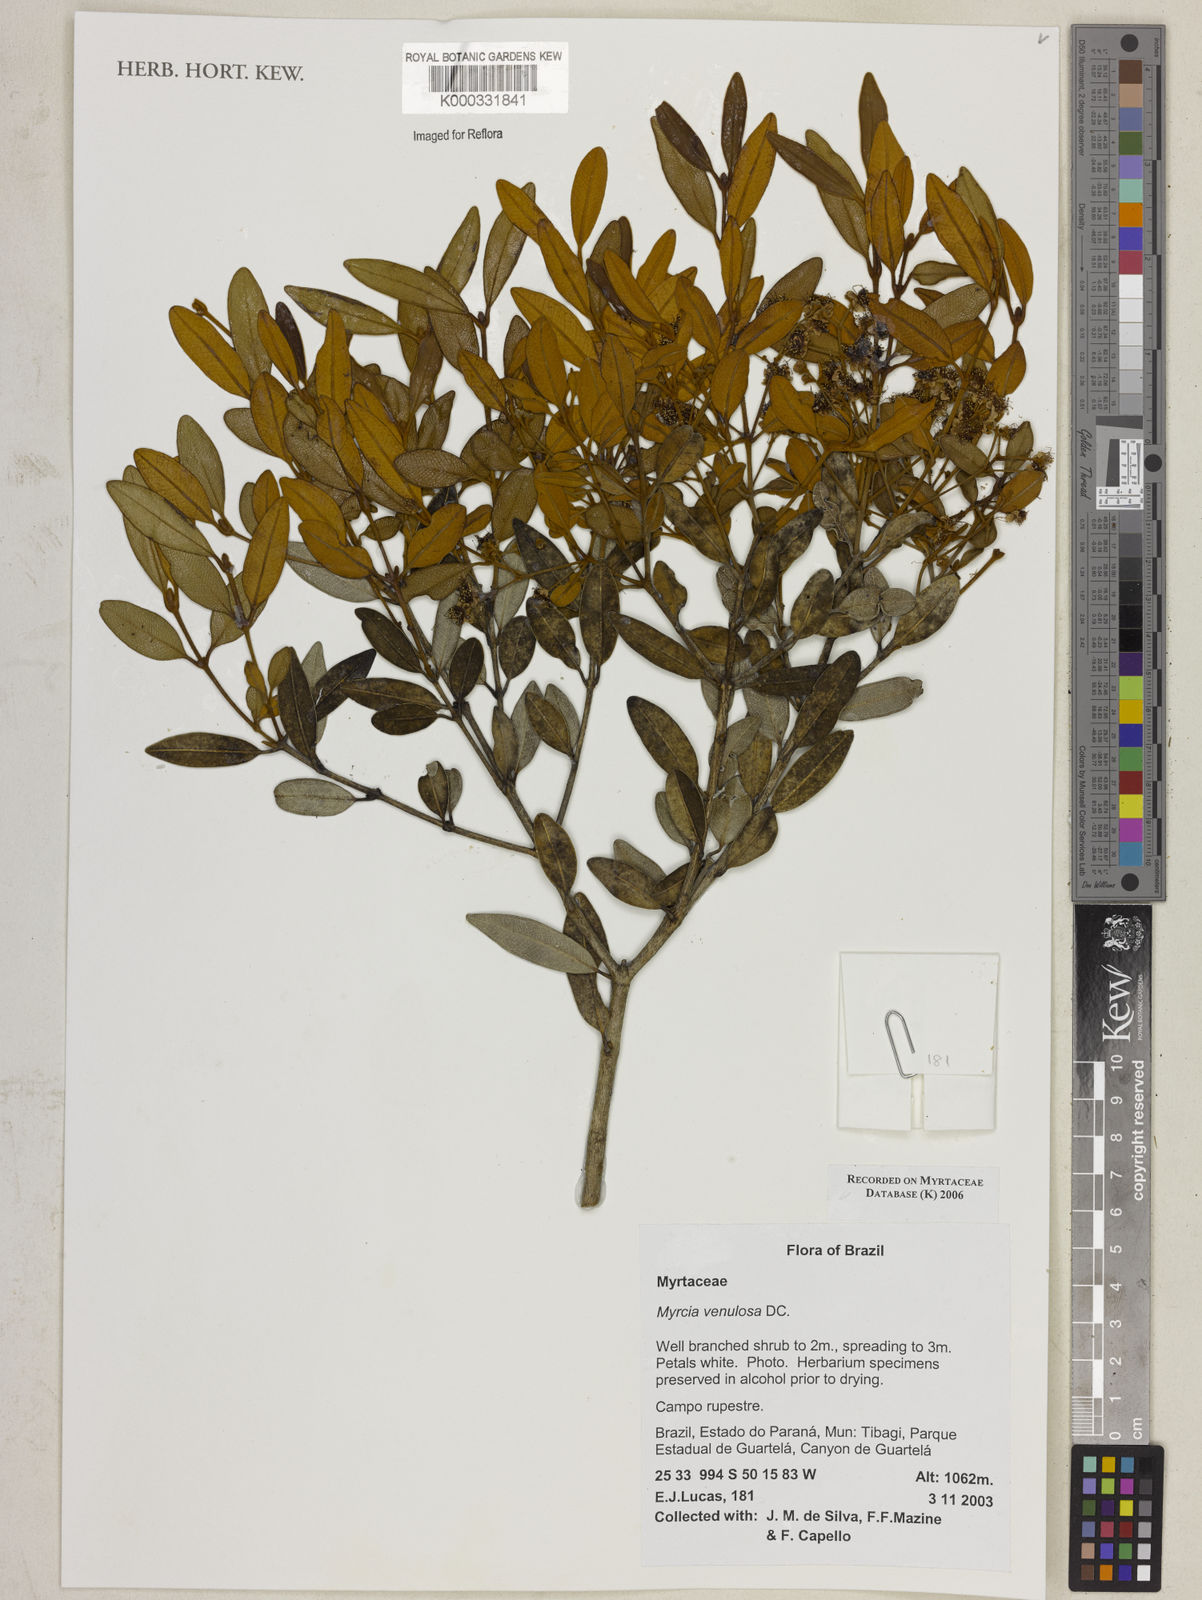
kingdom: Plantae
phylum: Tracheophyta
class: Magnoliopsida
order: Myrtales
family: Myrtaceae
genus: Myrcia
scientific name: Myrcia venulosa
